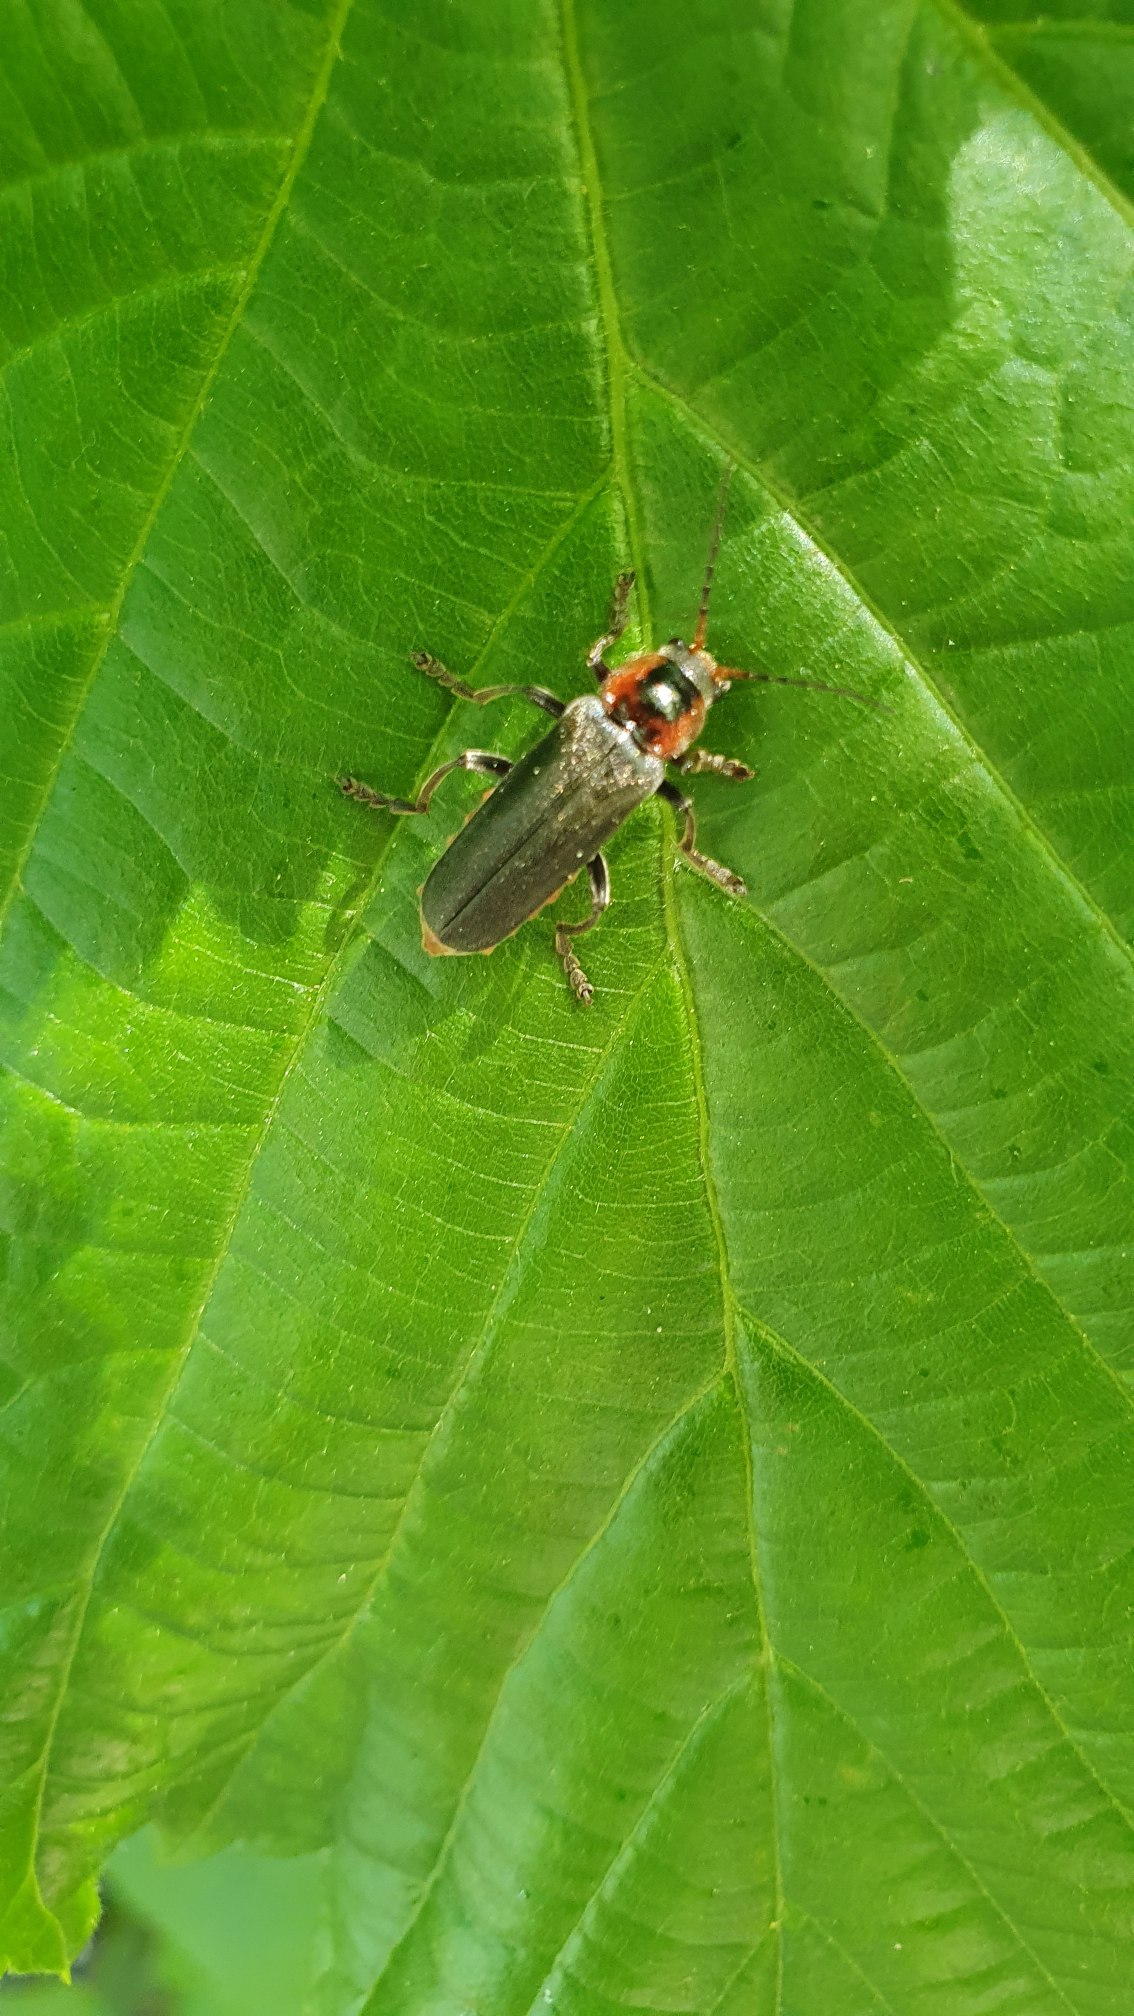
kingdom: Animalia
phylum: Arthropoda
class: Insecta
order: Coleoptera
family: Cantharidae
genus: Cantharis
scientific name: Cantharis fusca
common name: Stor blødvinge
